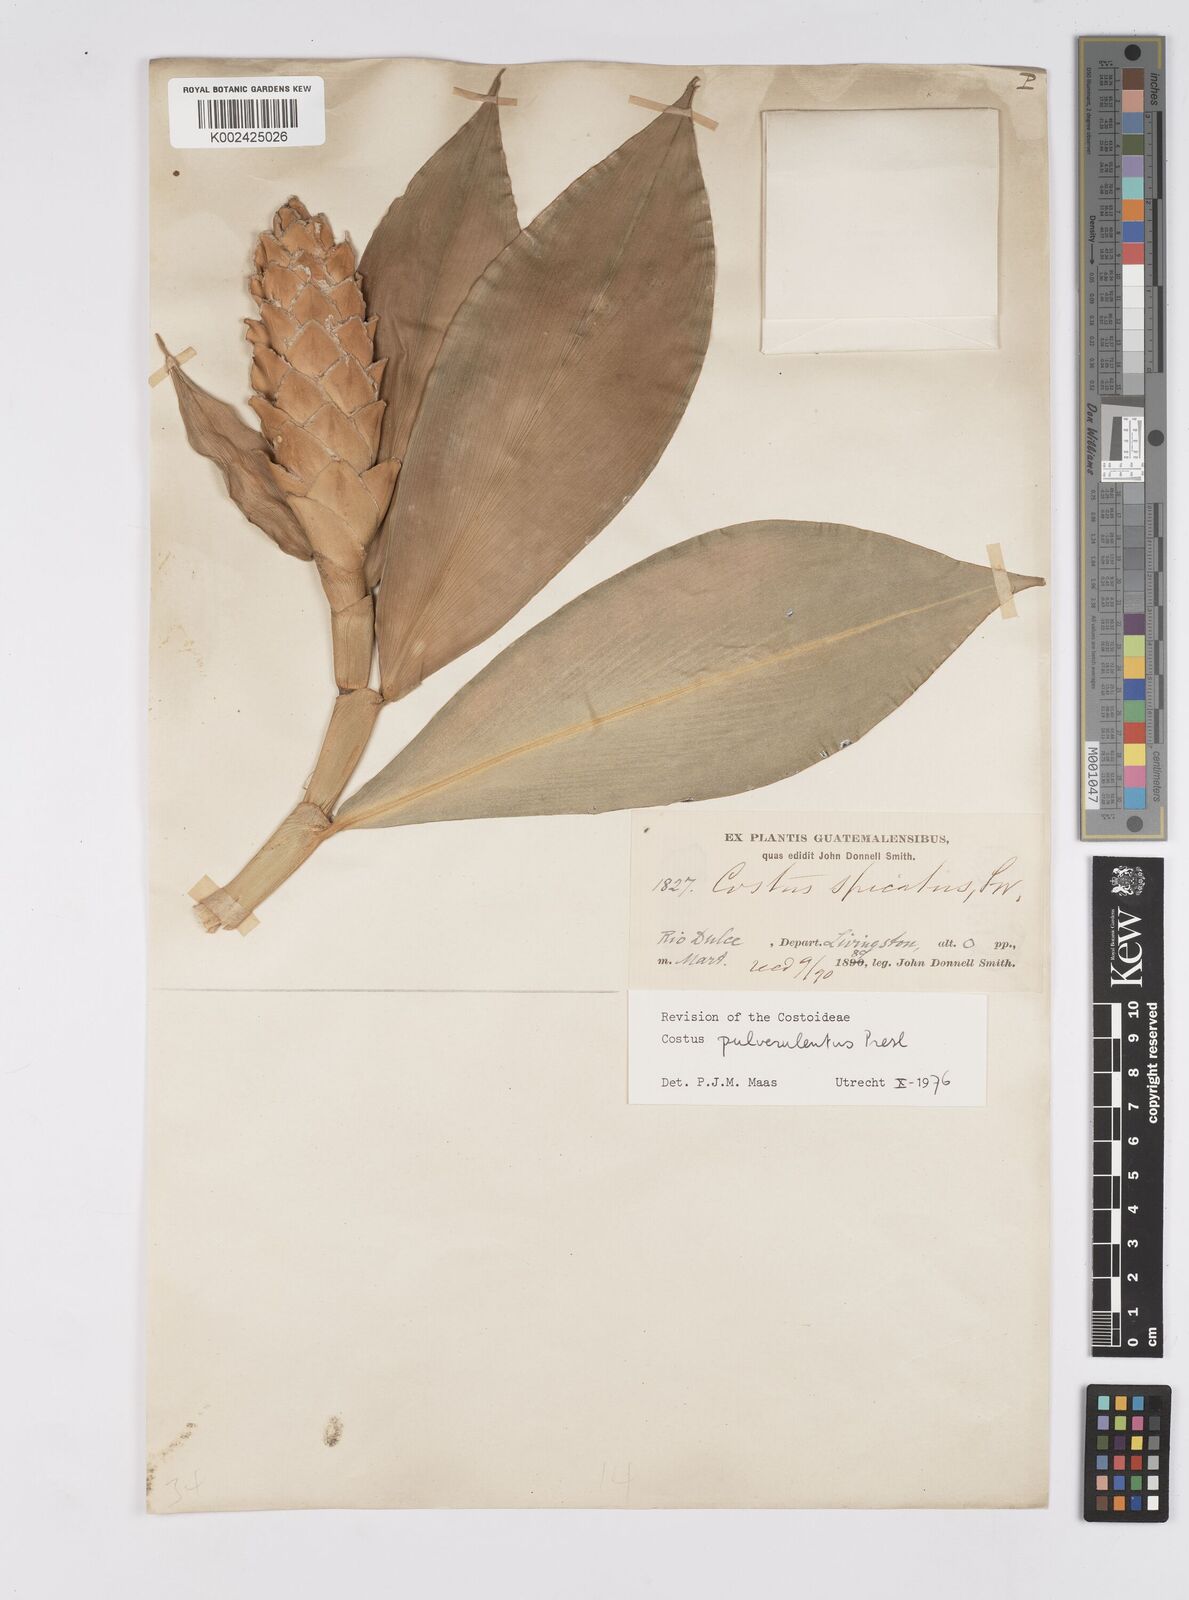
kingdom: Plantae
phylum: Tracheophyta
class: Liliopsida
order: Zingiberales
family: Costaceae
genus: Costus
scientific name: Costus pulverulentus
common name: Spiral ginger
